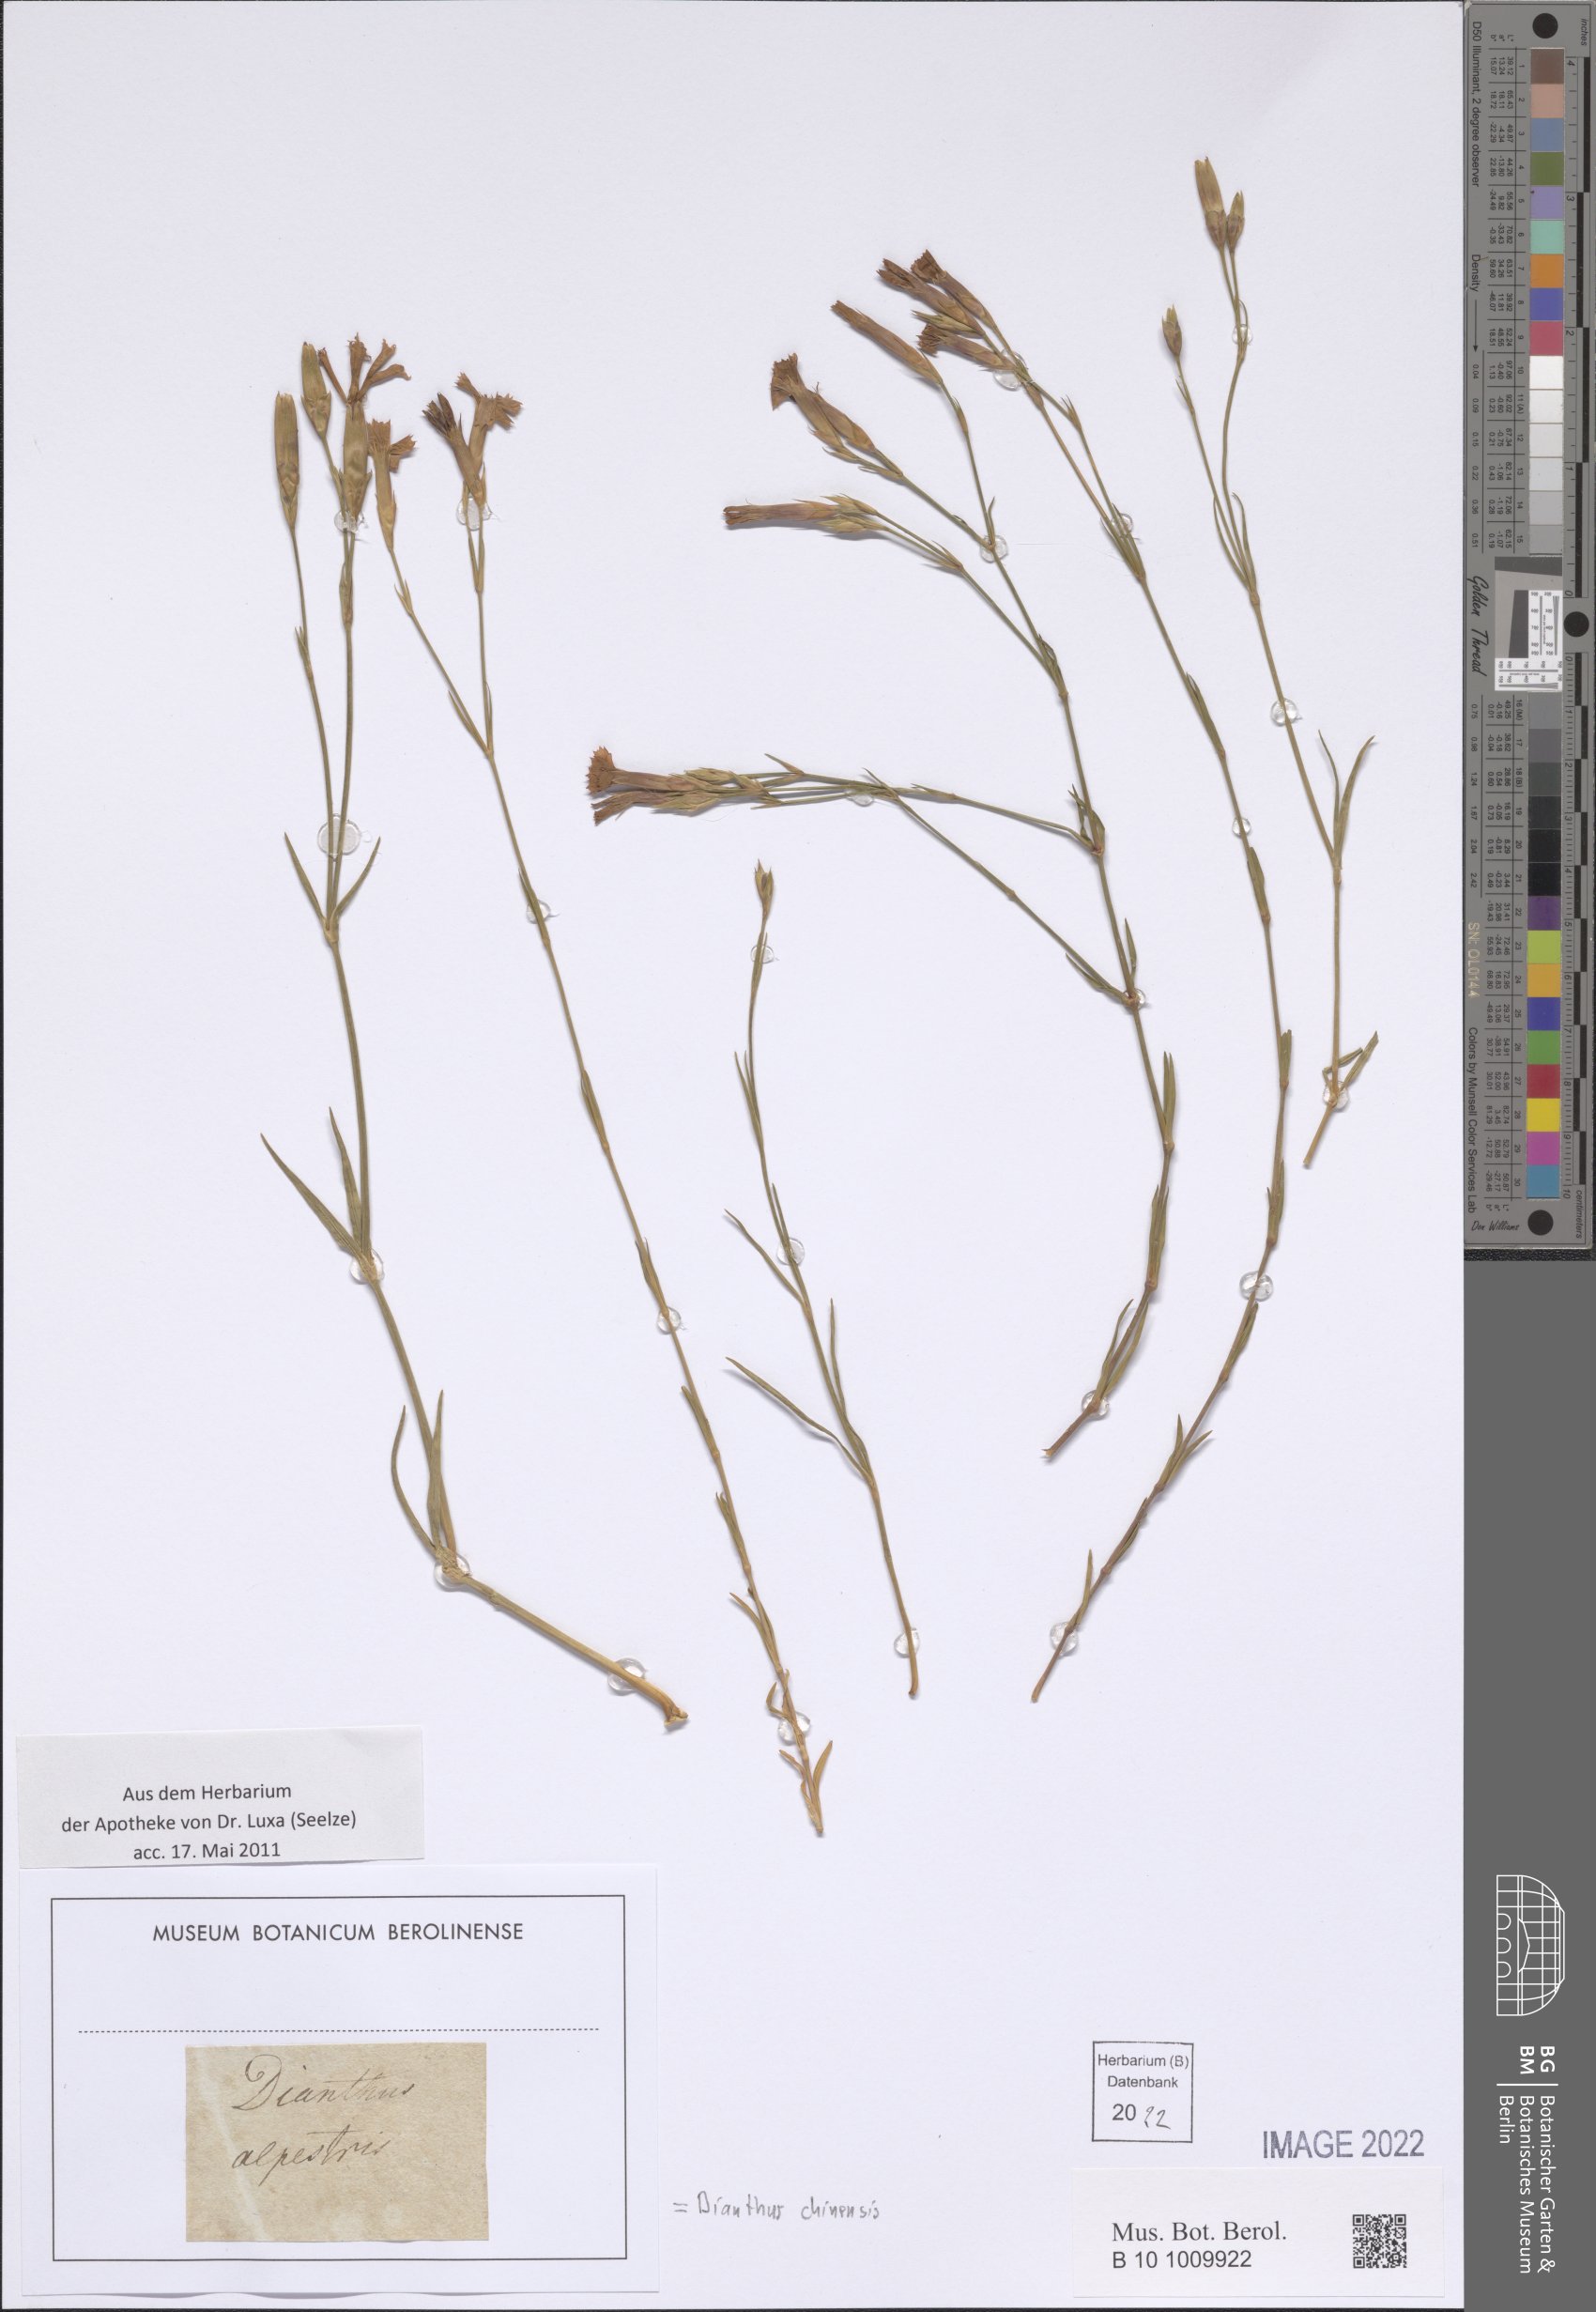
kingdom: Plantae
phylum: Tracheophyta
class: Magnoliopsida
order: Caryophyllales
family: Caryophyllaceae
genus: Dianthus
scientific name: Dianthus chinensis
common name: Rainbow pink
